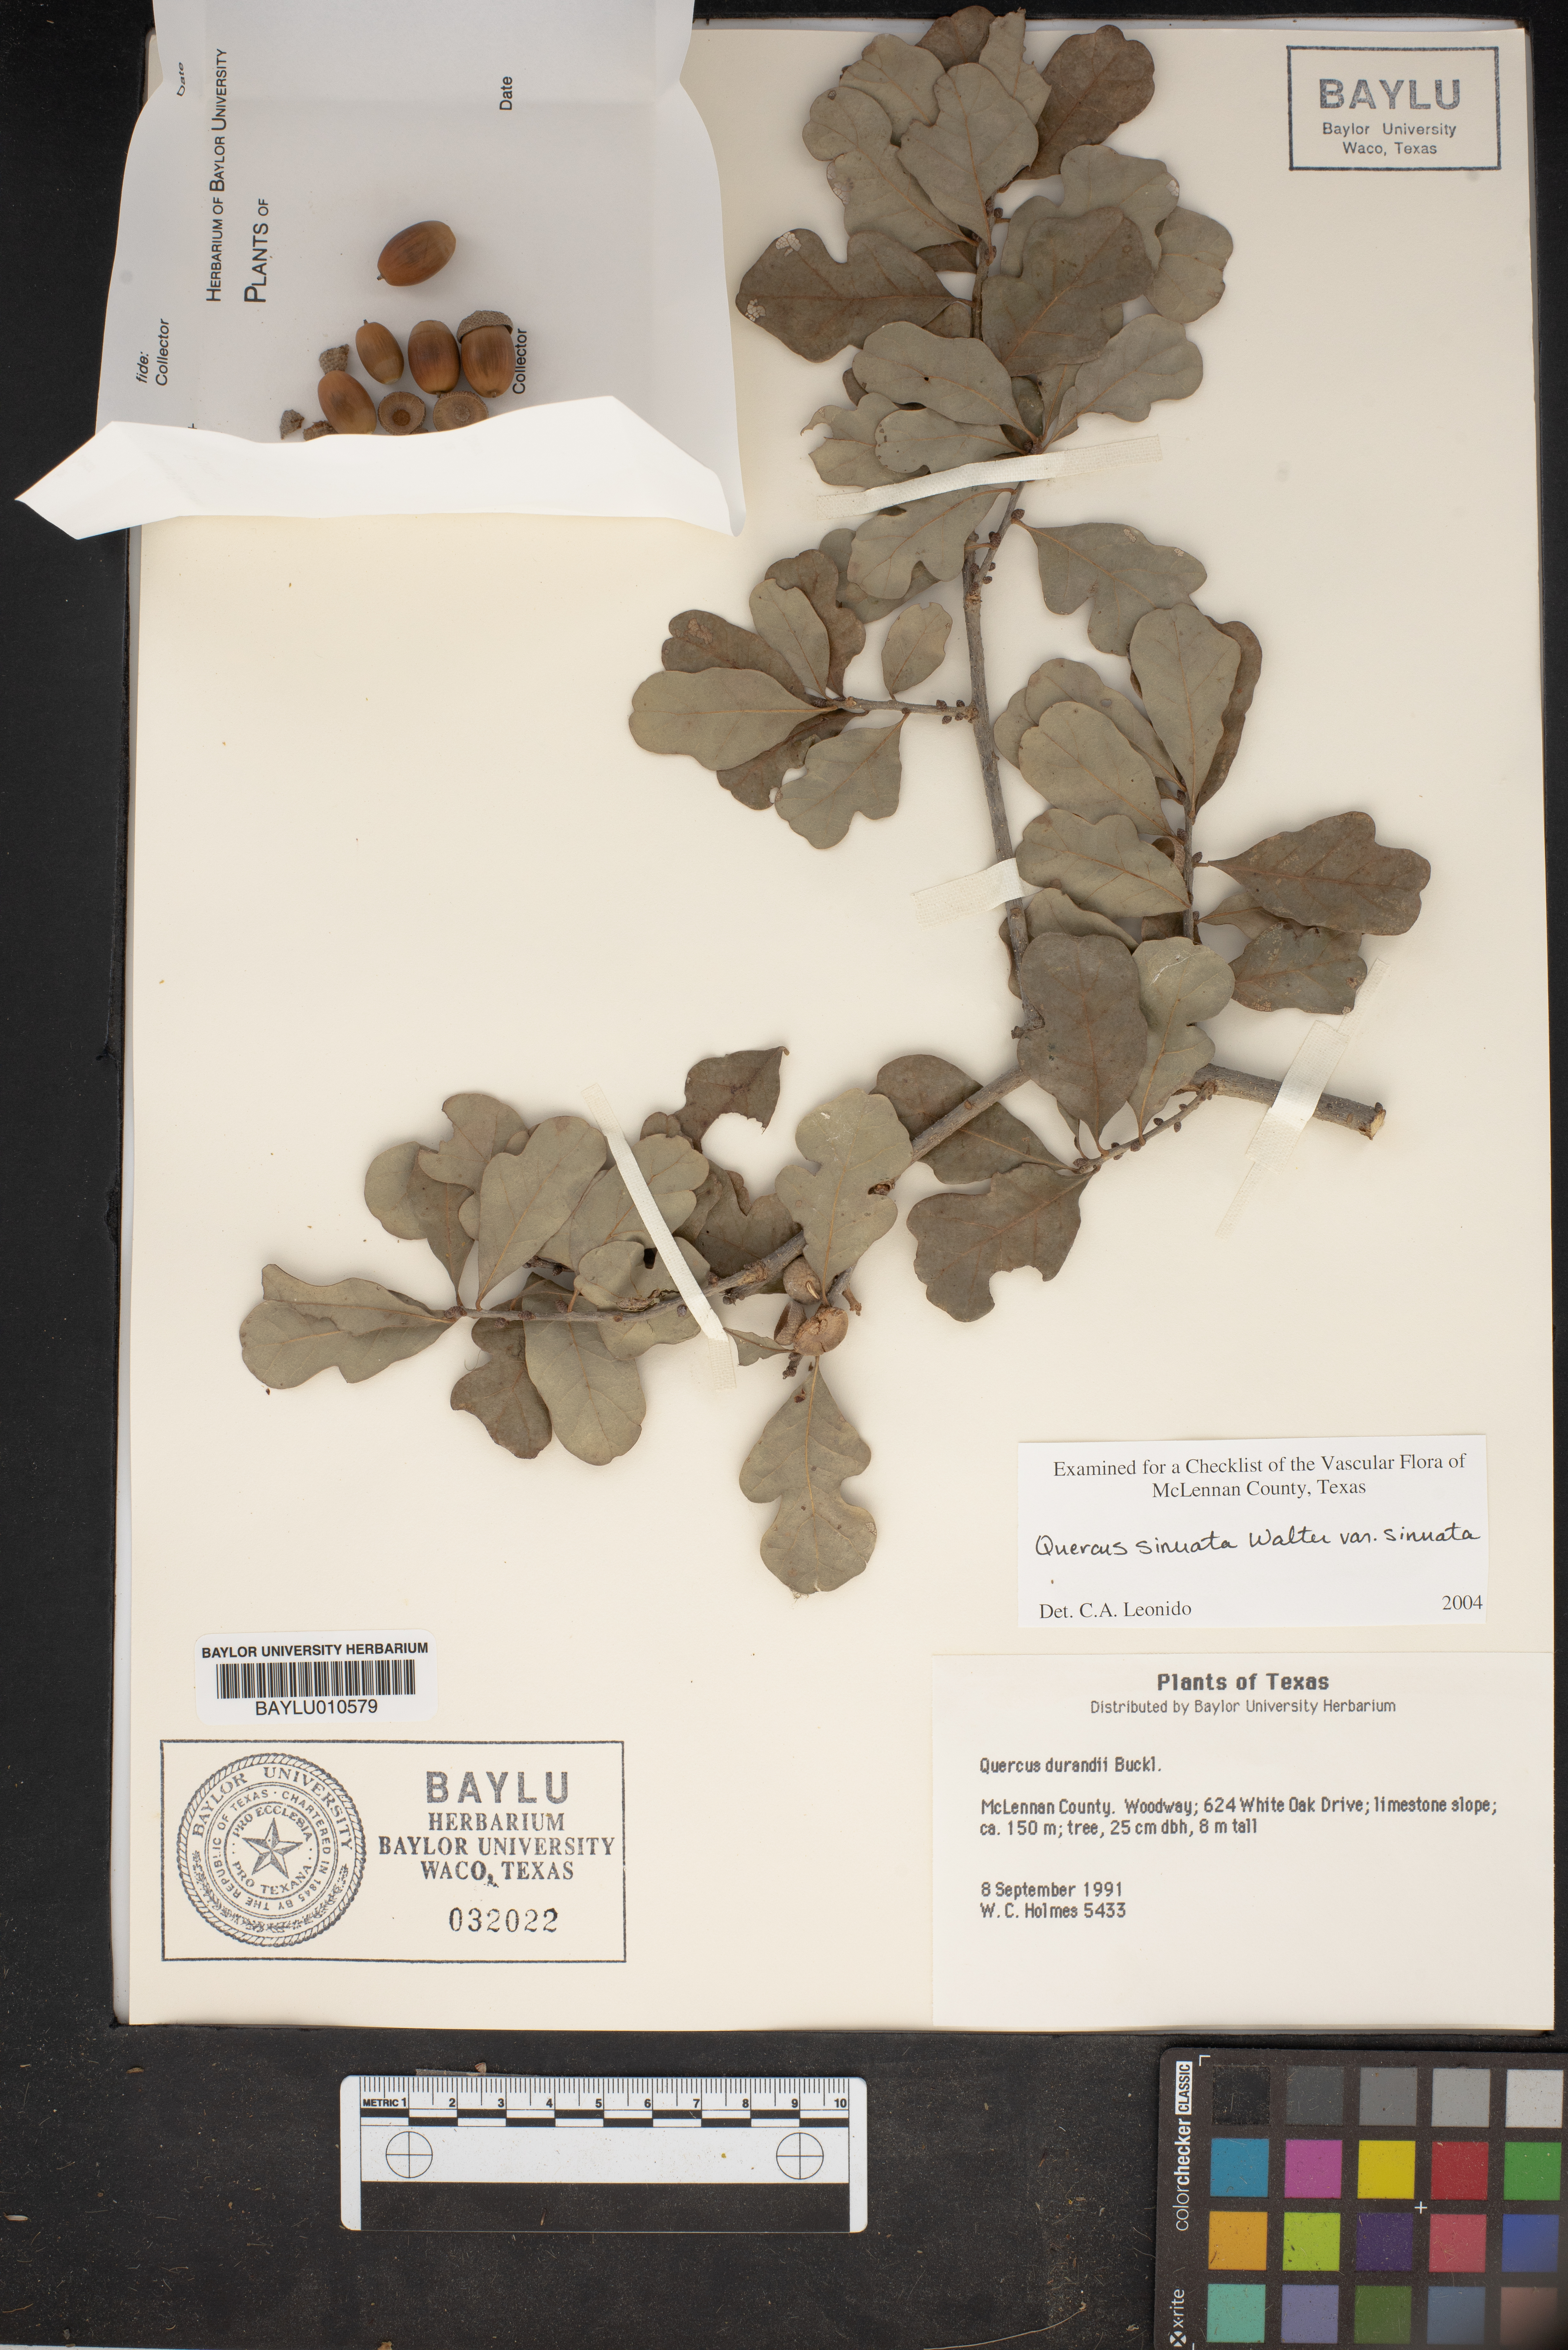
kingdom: Plantae
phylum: Tracheophyta
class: Magnoliopsida
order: Fagales
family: Fagaceae
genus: Quercus
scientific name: Quercus sinuata
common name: Durand oak
